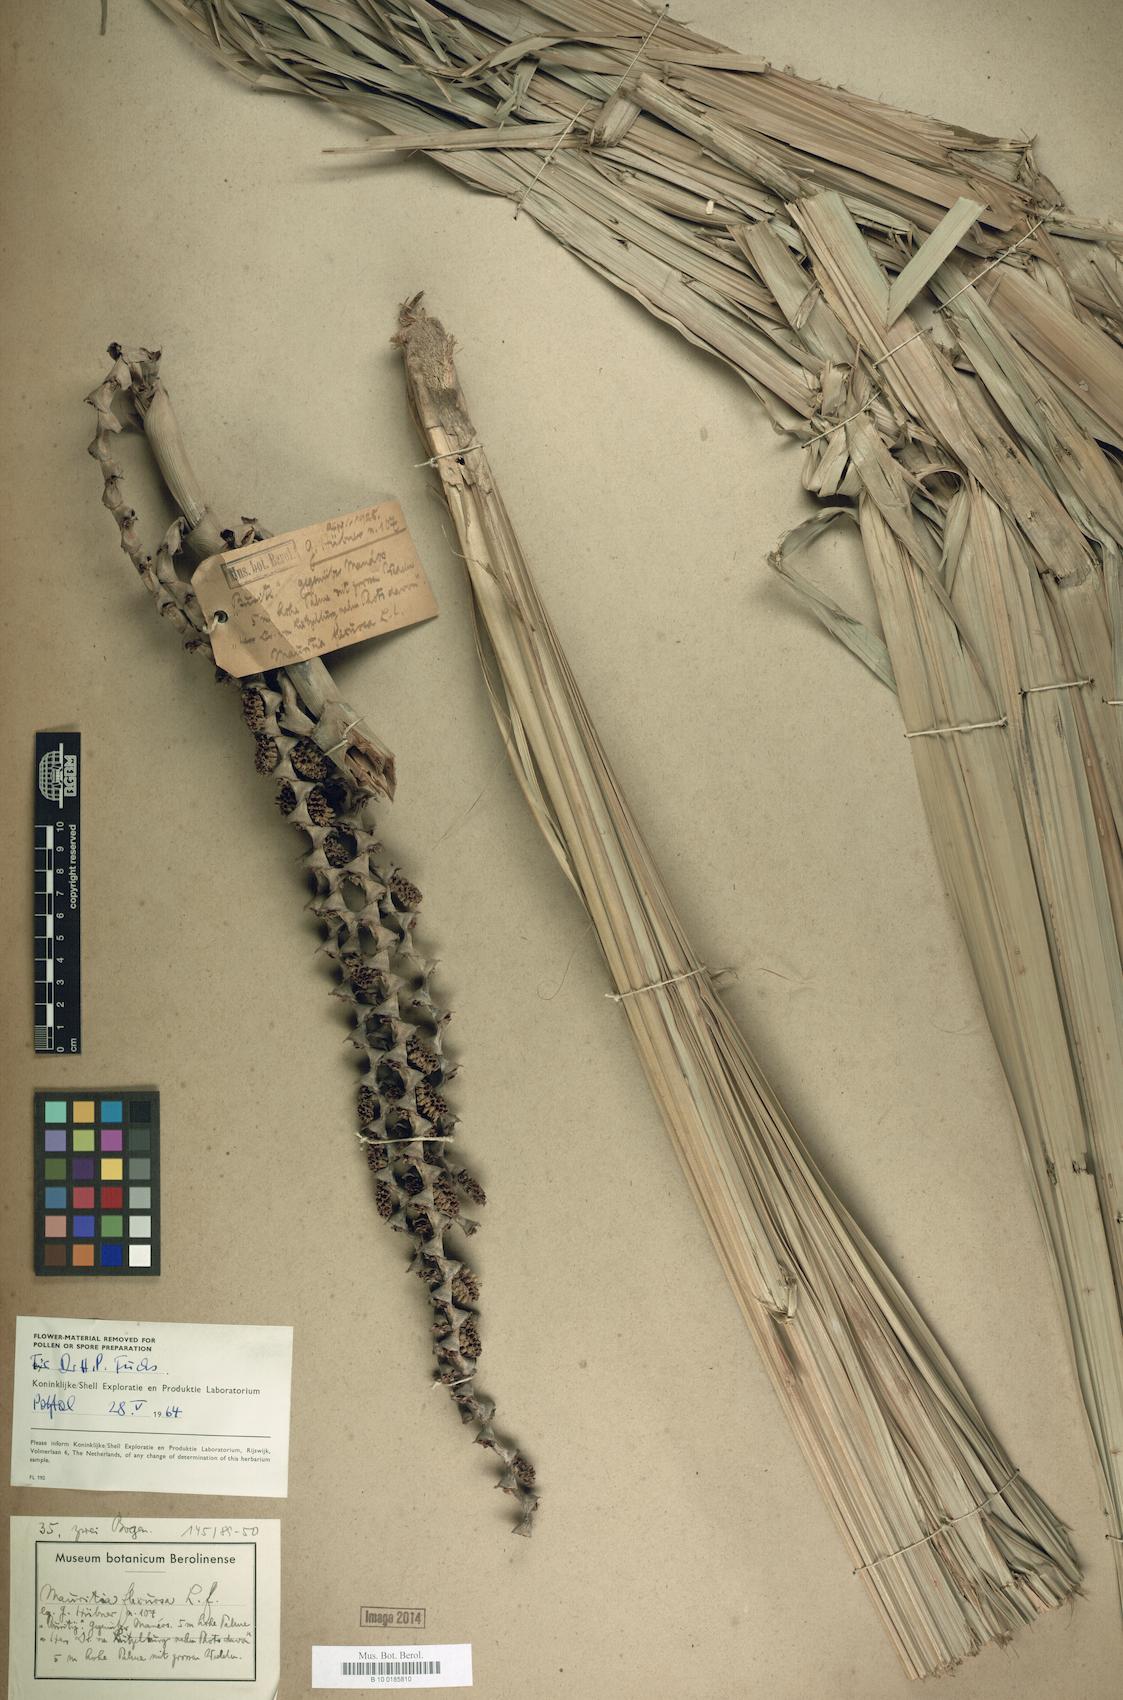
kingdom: Plantae
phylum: Tracheophyta
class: Liliopsida
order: Arecales
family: Arecaceae
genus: Mauritia
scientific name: Mauritia flexuosa
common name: Tree-of-life
